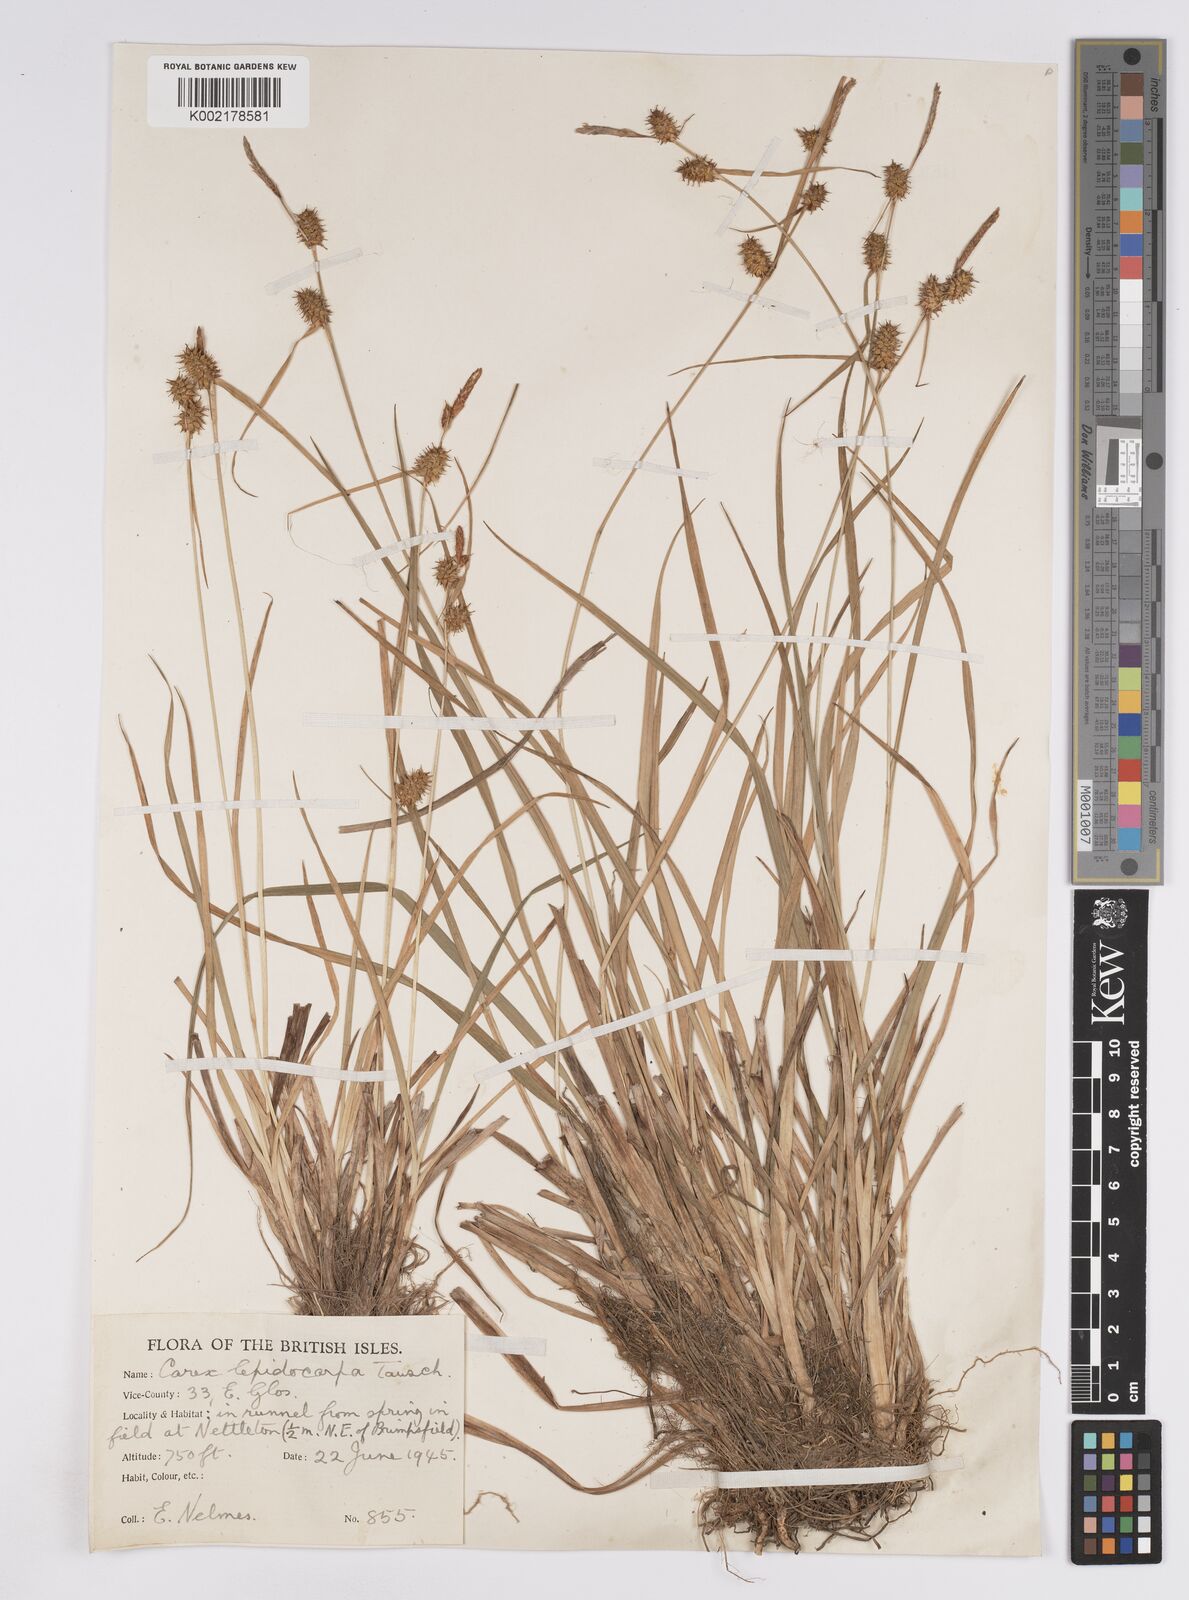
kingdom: Plantae
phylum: Tracheophyta
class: Liliopsida
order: Poales
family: Cyperaceae
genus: Carex
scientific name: Carex lepidocarpa
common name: Long-stalked yellow-sedge
